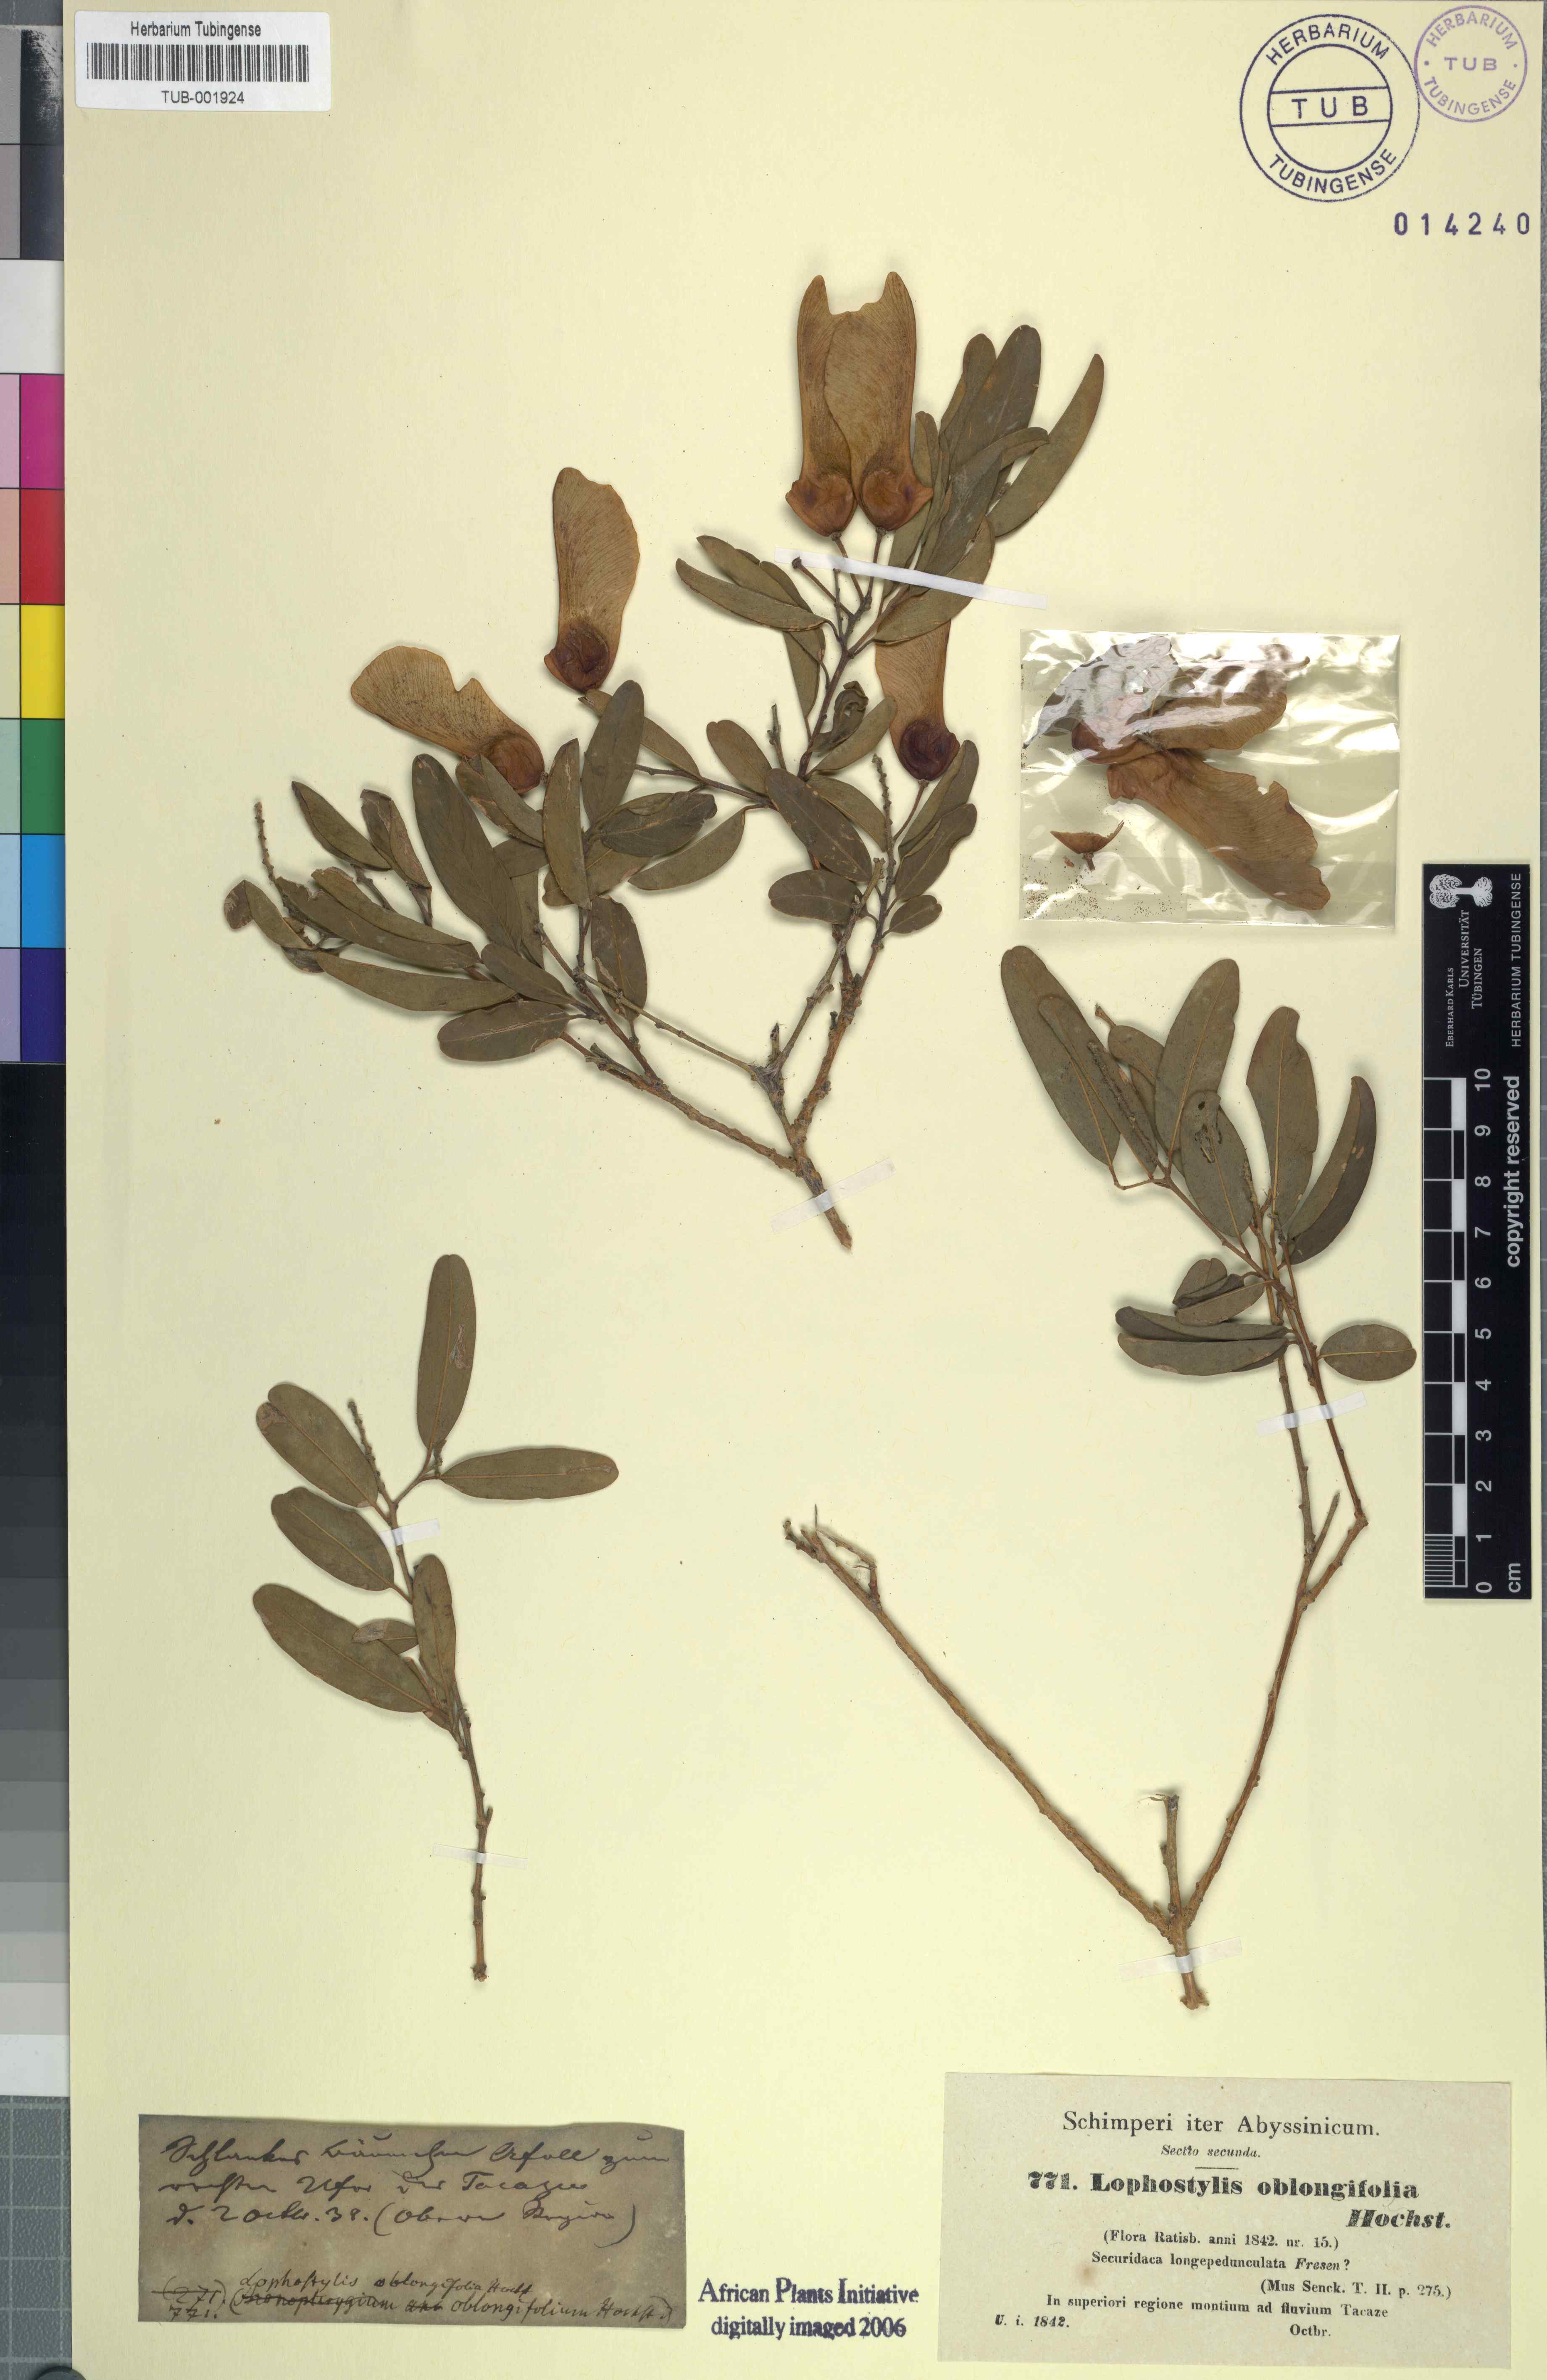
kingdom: Plantae
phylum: Tracheophyta
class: Magnoliopsida
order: Fabales
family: Polygalaceae
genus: Securidaca
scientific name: Securidaca longipedunculata
